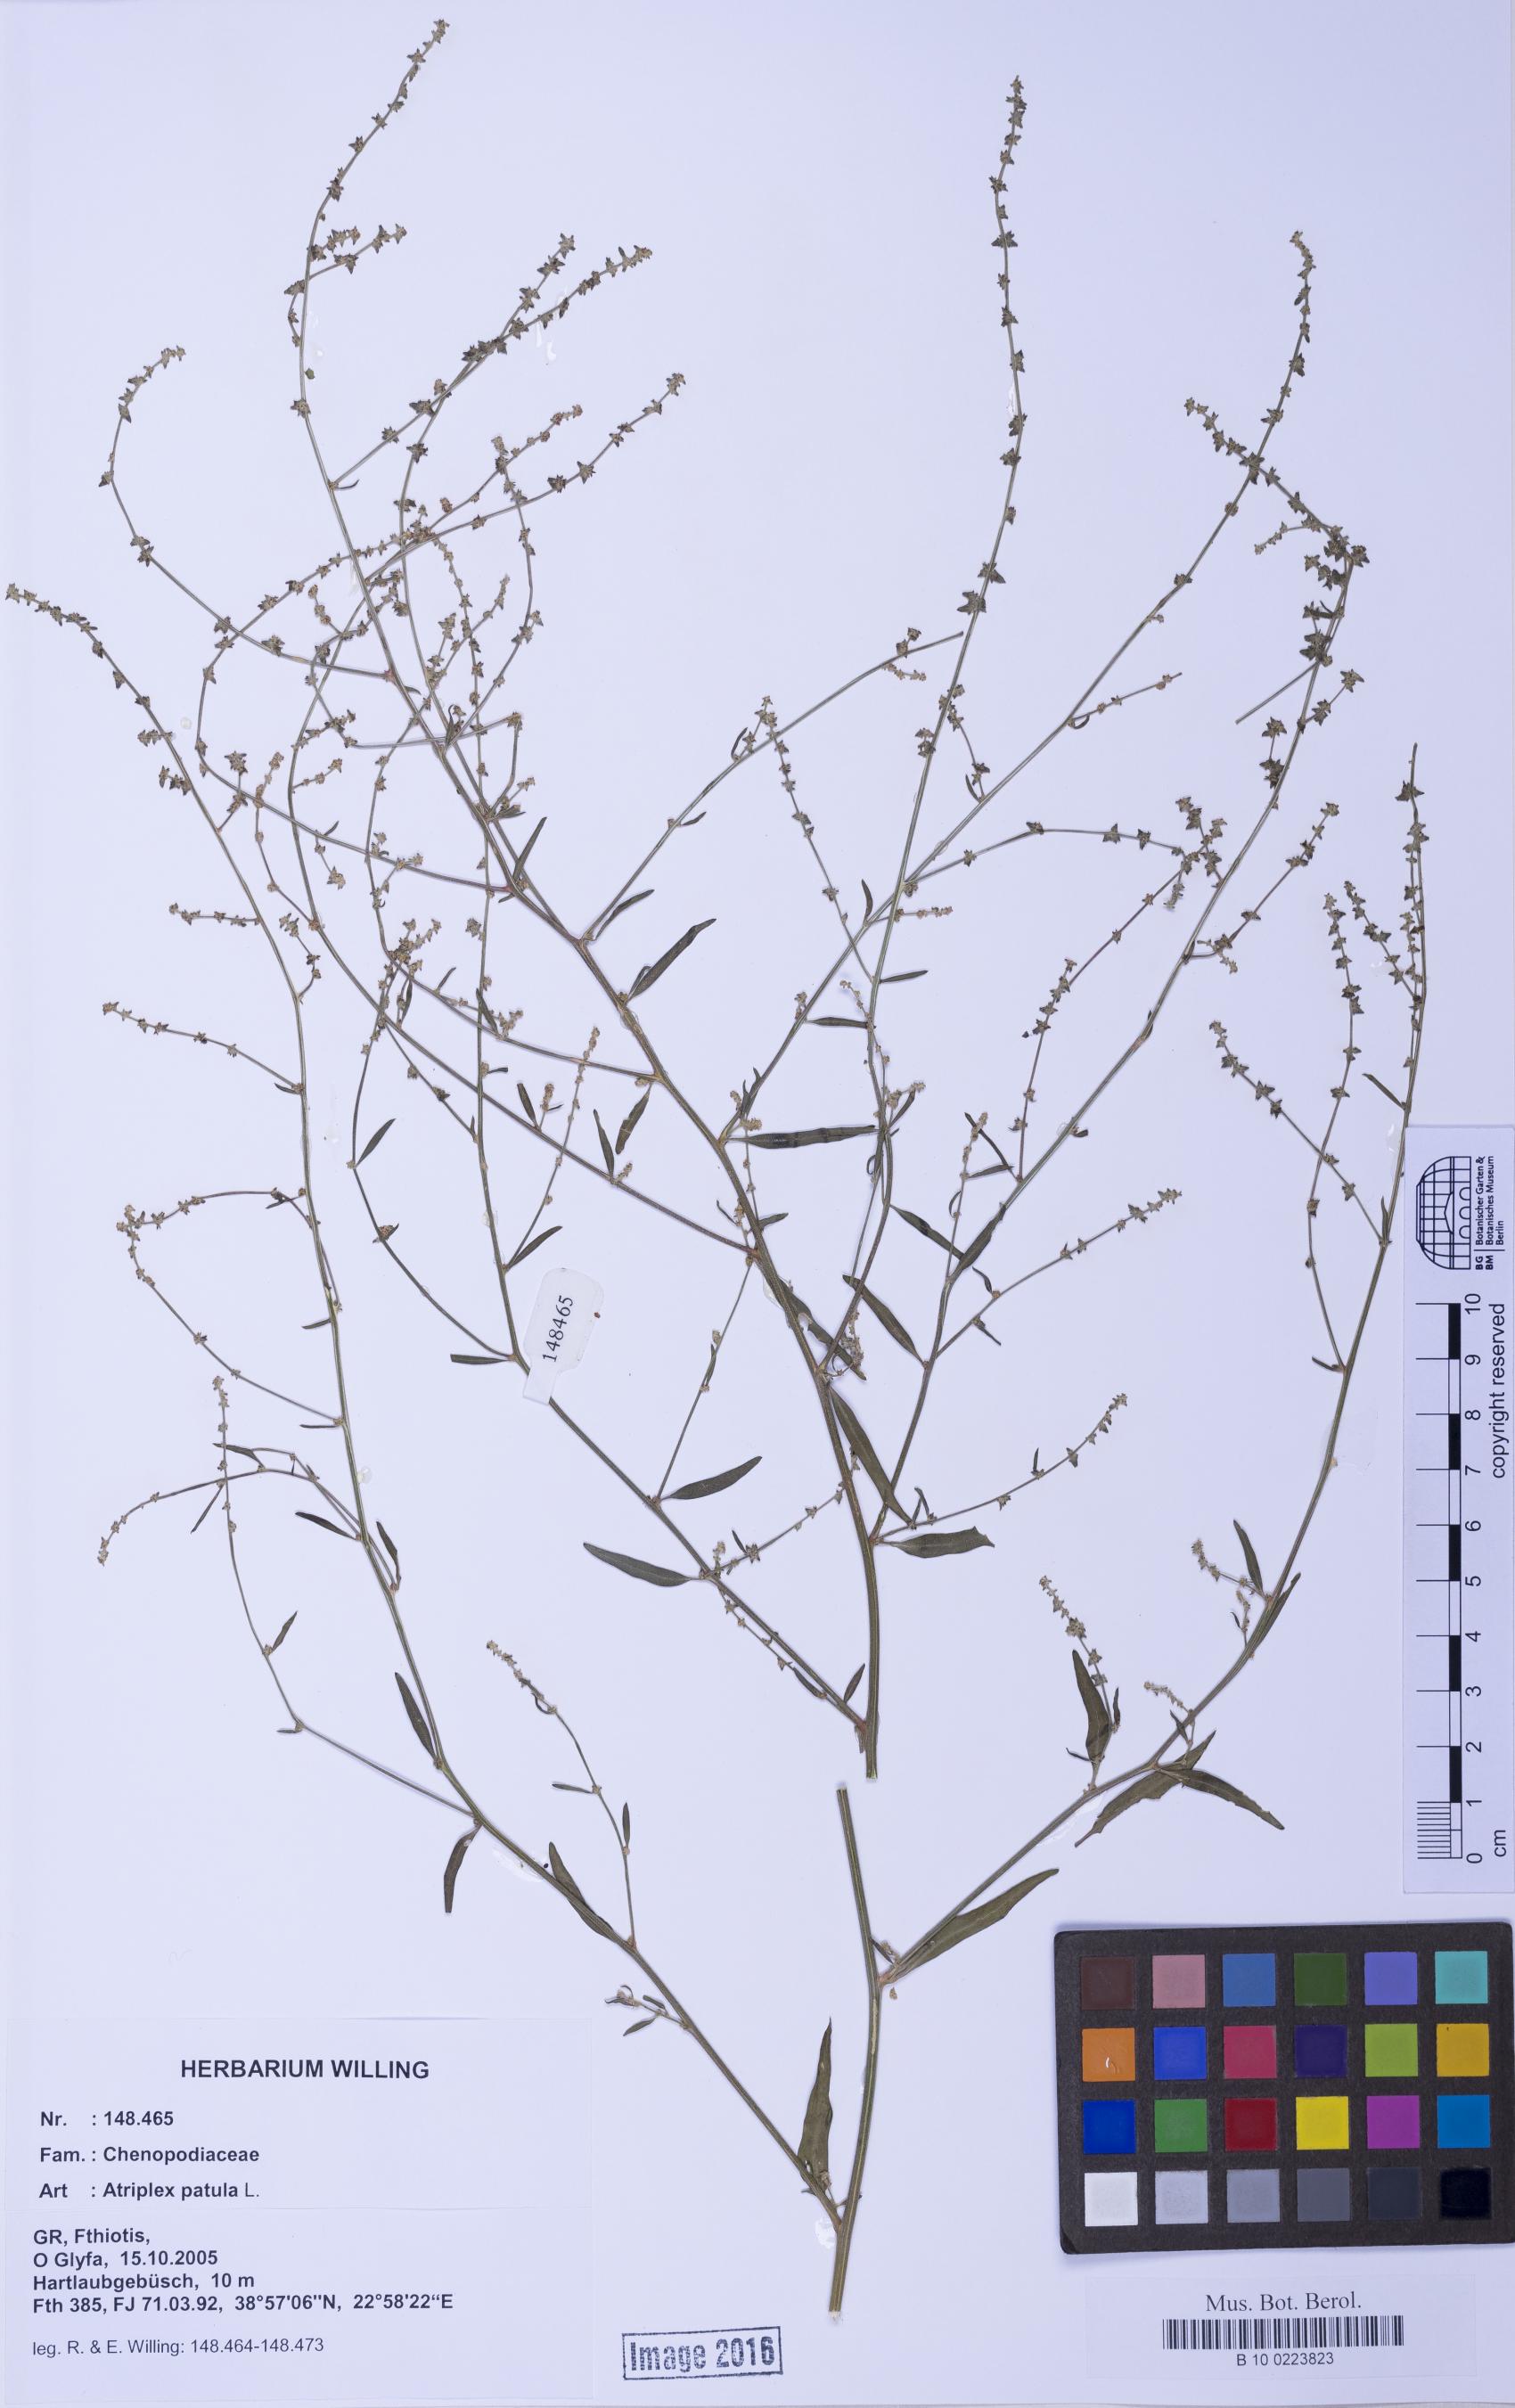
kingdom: Plantae
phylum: Tracheophyta
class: Magnoliopsida
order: Caryophyllales
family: Amaranthaceae
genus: Atriplex
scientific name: Atriplex patula
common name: Common orache
